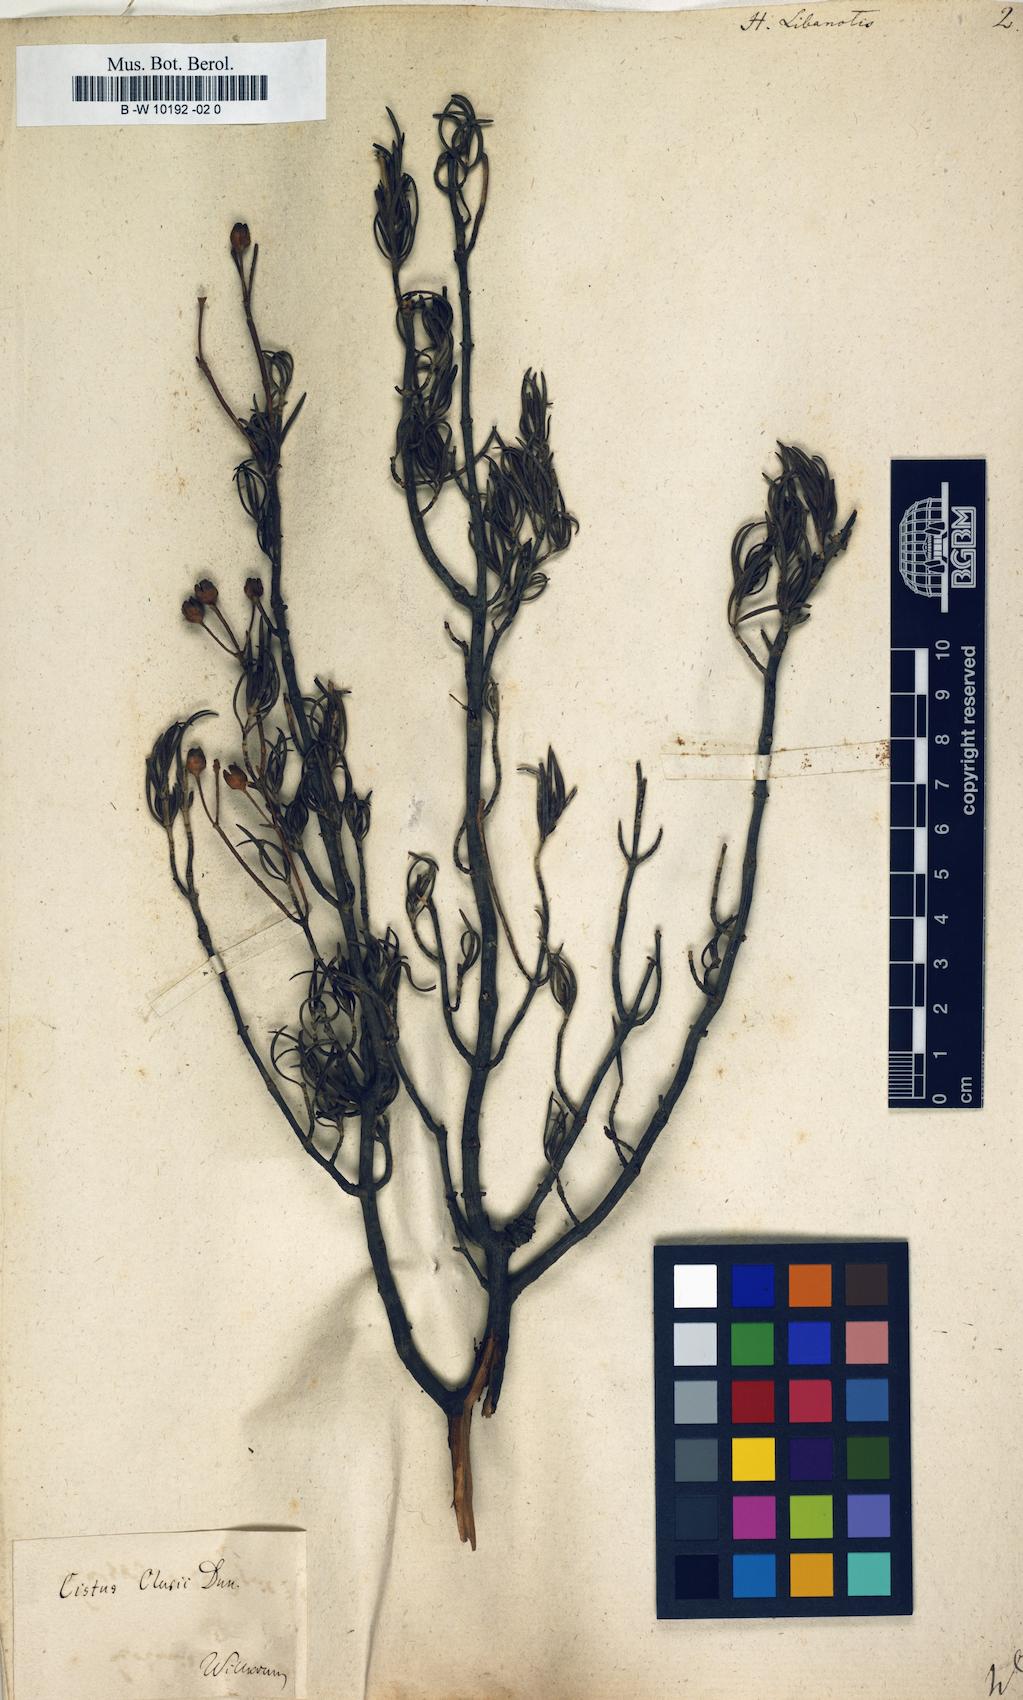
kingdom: Plantae
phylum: Tracheophyta
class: Magnoliopsida
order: Malvales
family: Cistaceae
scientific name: Cistaceae
